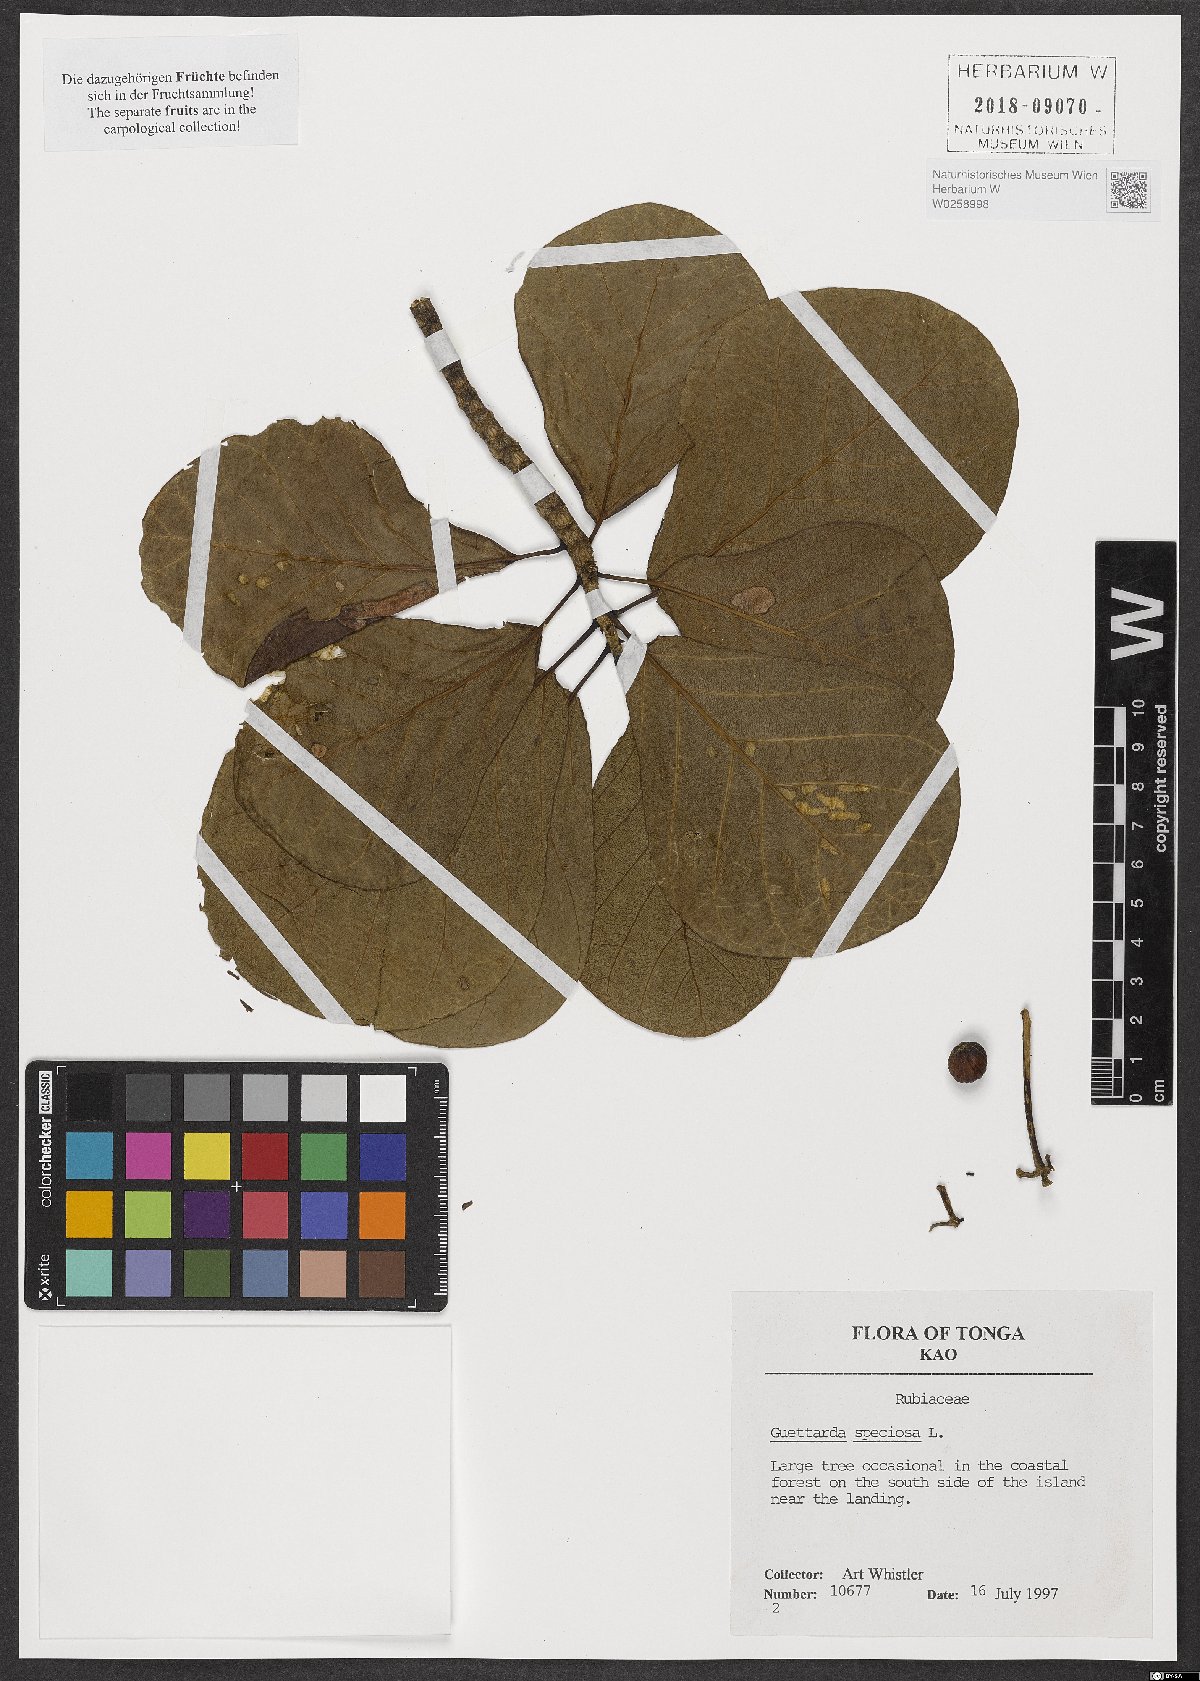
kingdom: Plantae
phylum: Tracheophyta
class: Magnoliopsida
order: Gentianales
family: Rubiaceae
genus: Guettarda
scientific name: Guettarda speciosa
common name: Sea randa
